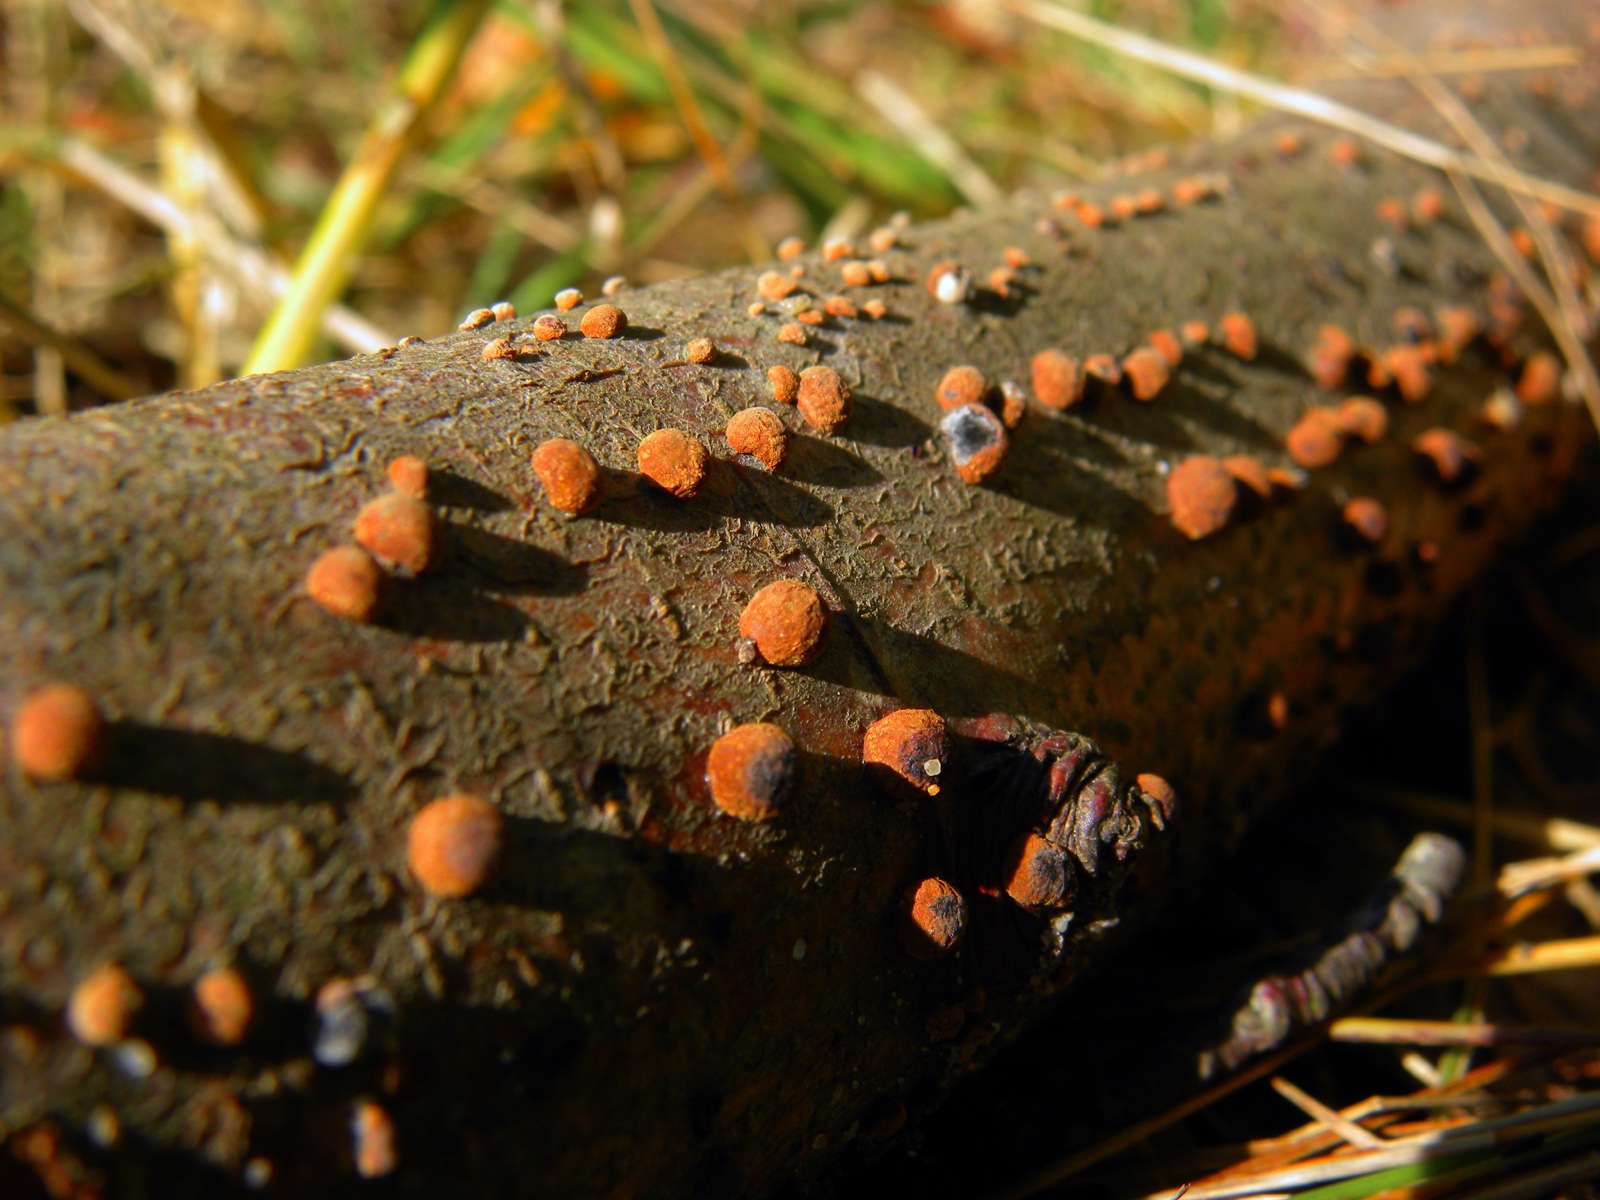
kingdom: Fungi
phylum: Ascomycota
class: Sordariomycetes
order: Xylariales
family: Hypoxylaceae
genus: Hypoxylon
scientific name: Hypoxylon fragiforme
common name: kuljordbær
